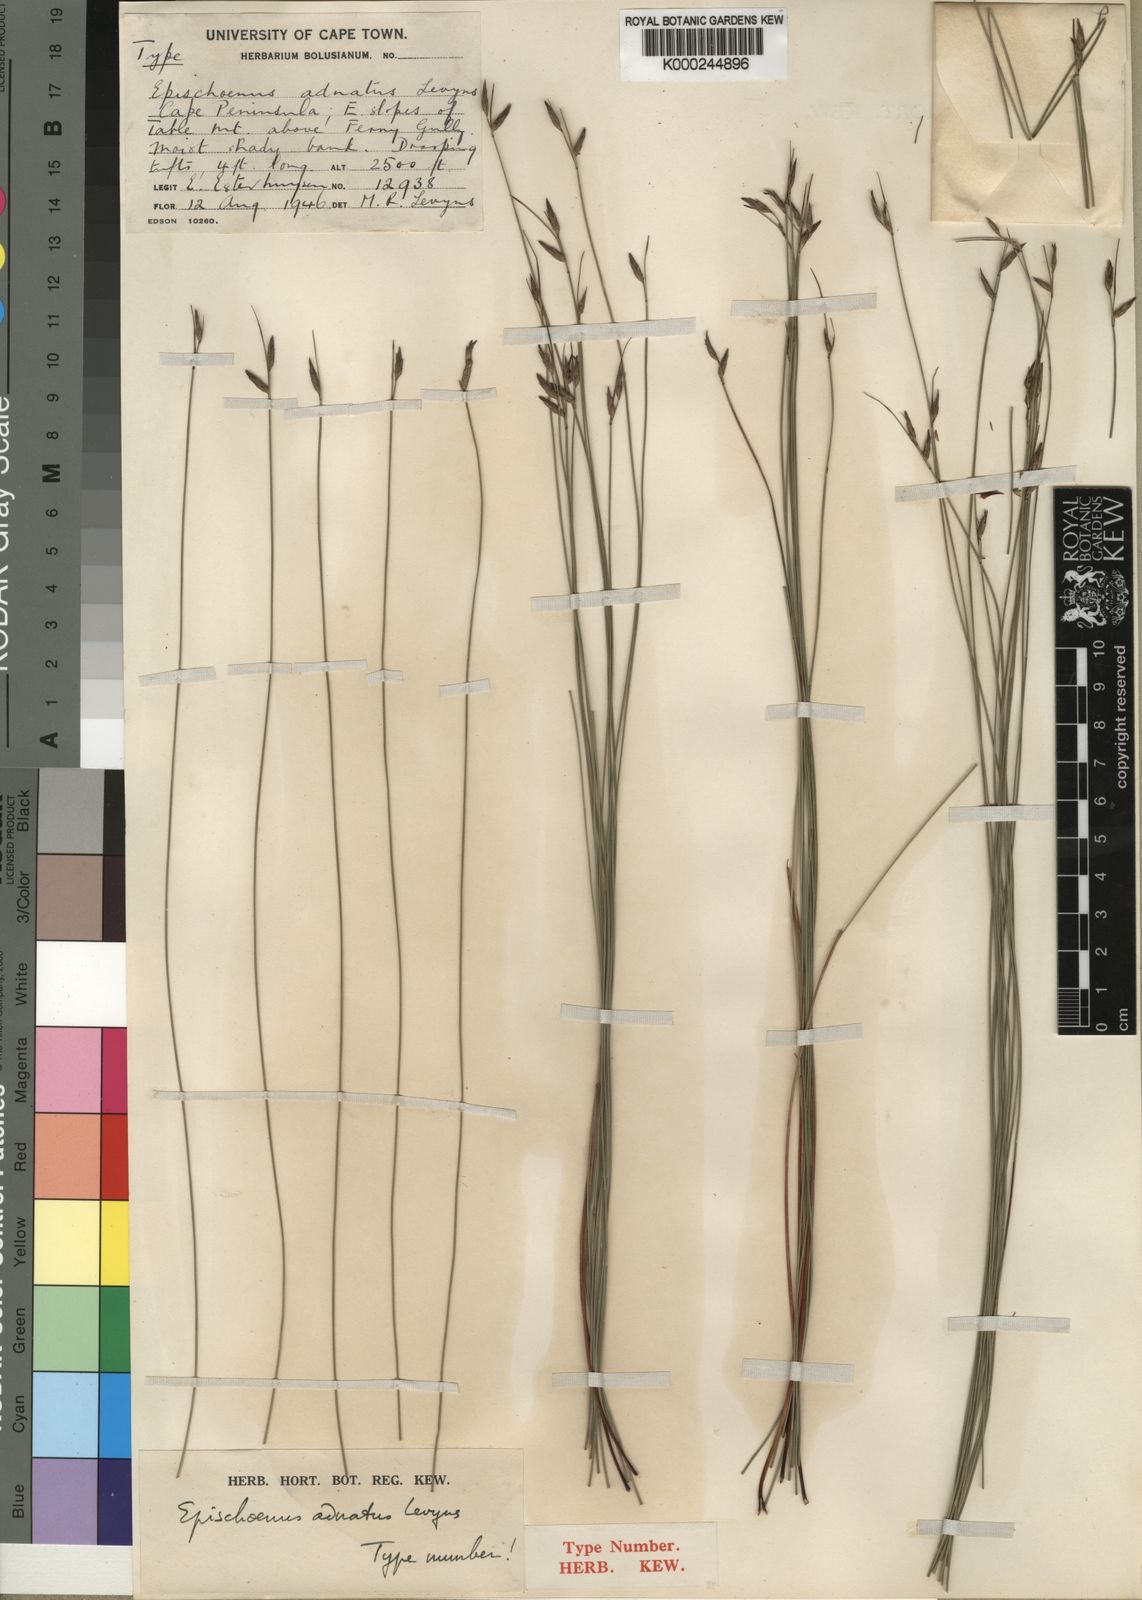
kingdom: Plantae
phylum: Tracheophyta
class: Liliopsida
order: Poales
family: Cyperaceae
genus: Schoenus
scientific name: Schoenus adnatus
